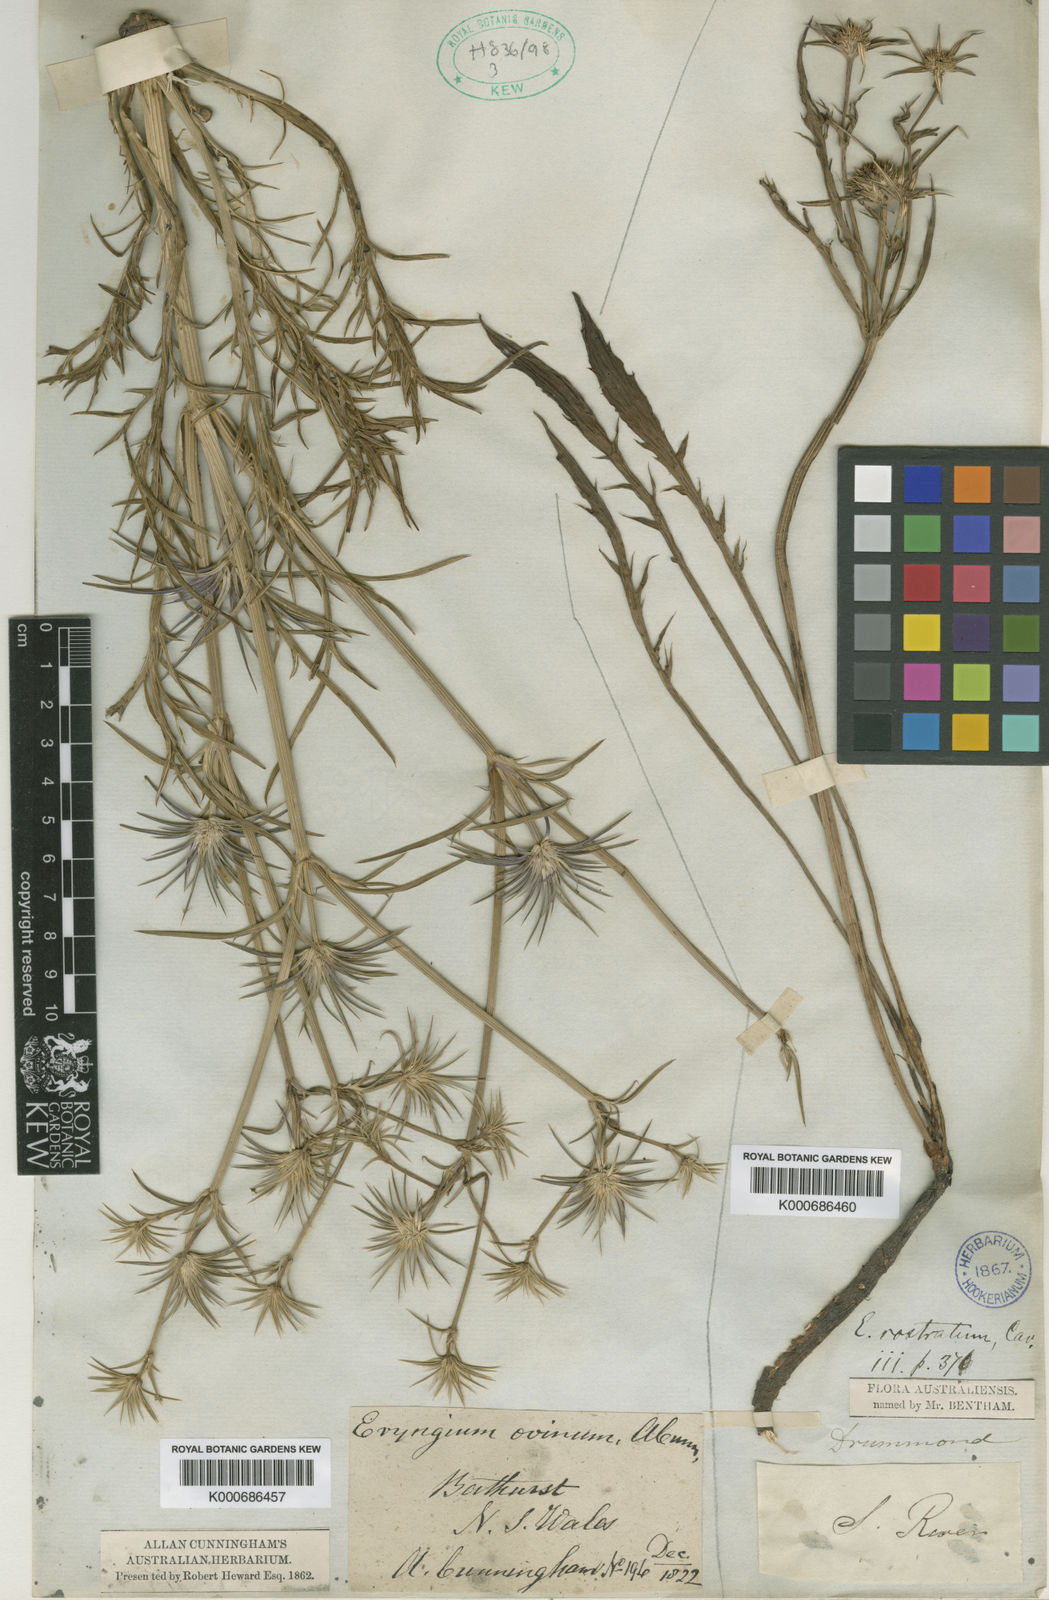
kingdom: Plantae
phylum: Tracheophyta
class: Magnoliopsida
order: Apiales
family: Apiaceae
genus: Eryngium
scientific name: Eryngium rostratum
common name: Blue eryngo
